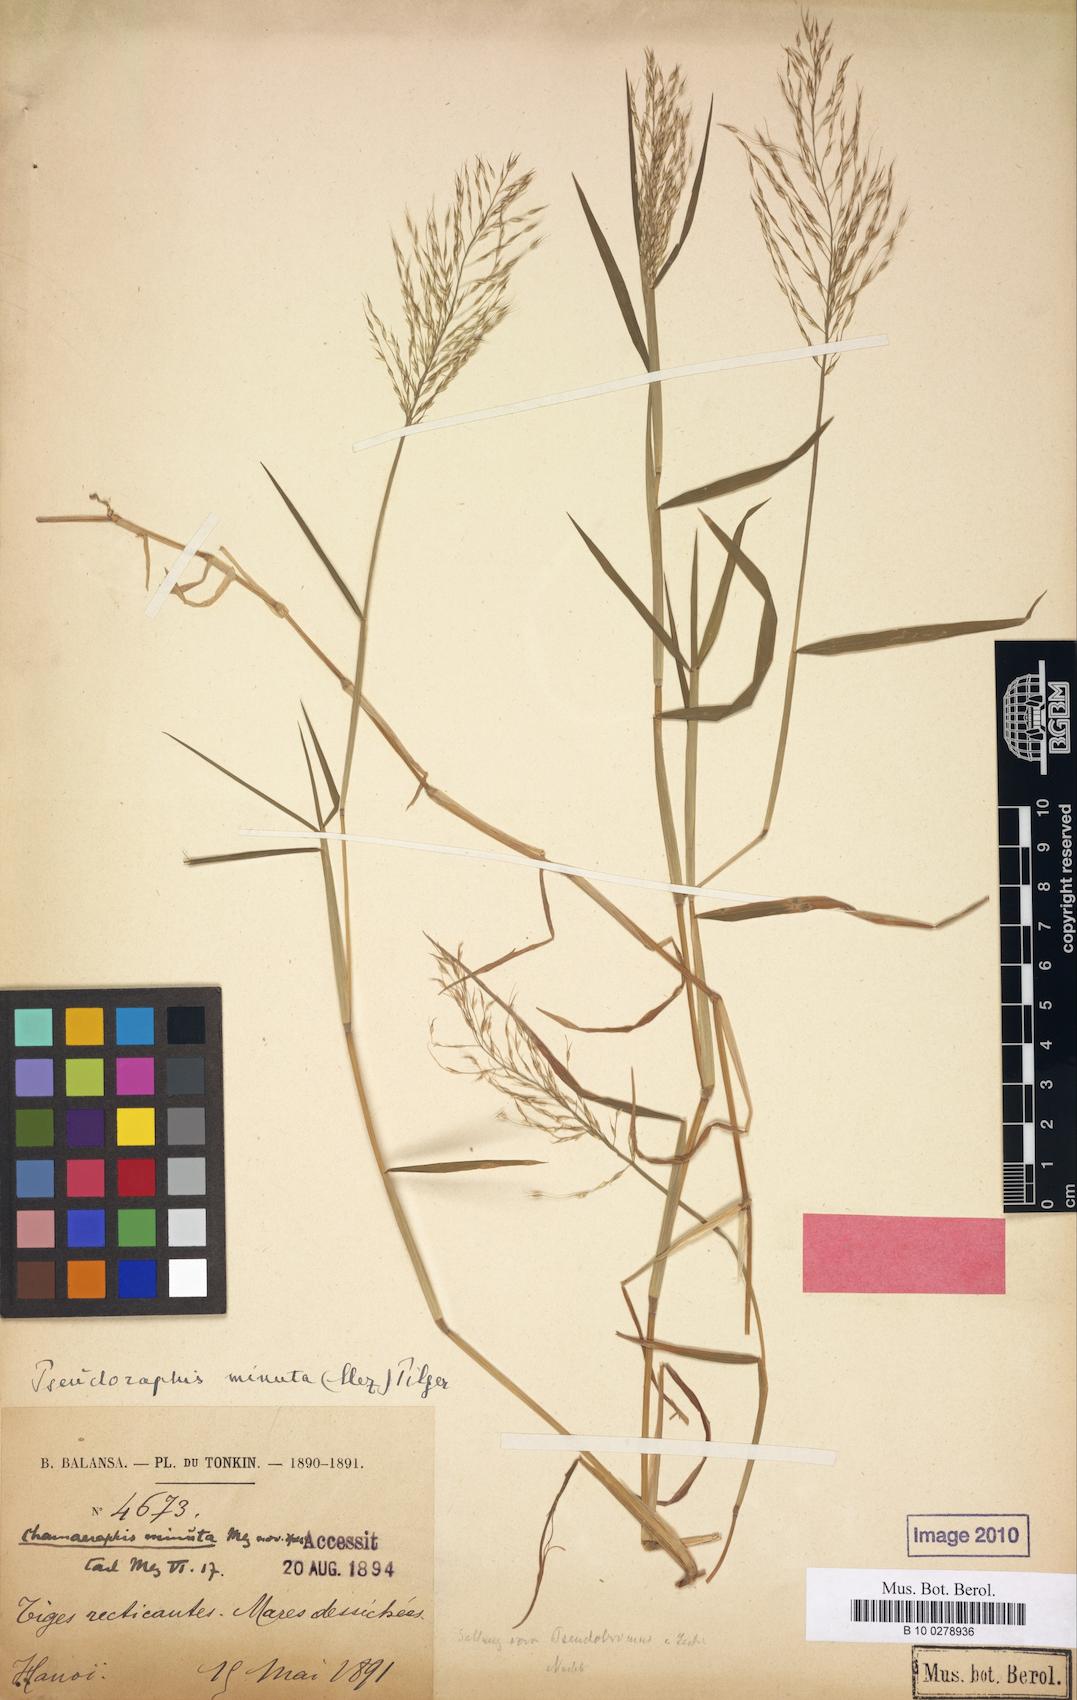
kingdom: Plantae
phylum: Tracheophyta
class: Liliopsida
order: Poales
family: Poaceae
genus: Pseudoraphis
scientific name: Pseudoraphis minuta
